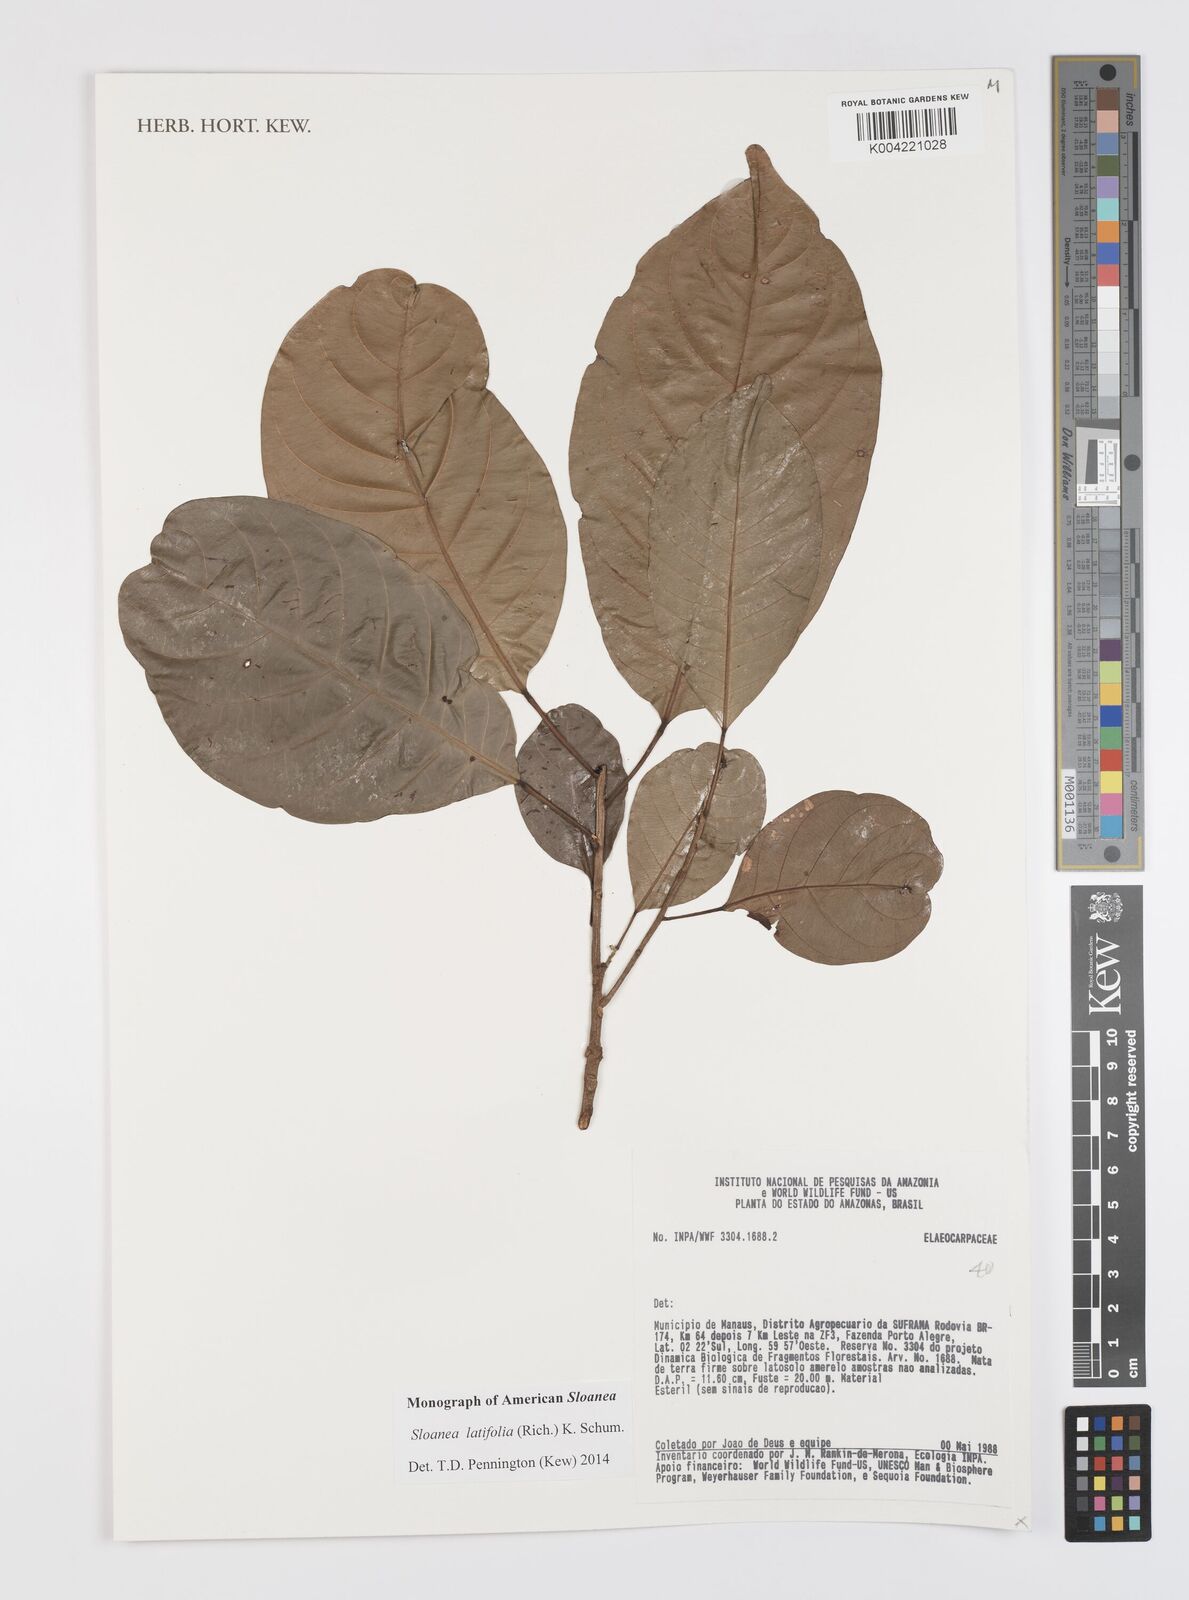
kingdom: Plantae
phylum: Tracheophyta
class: Magnoliopsida
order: Oxalidales
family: Elaeocarpaceae
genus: Sloanea
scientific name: Sloanea latifolia
